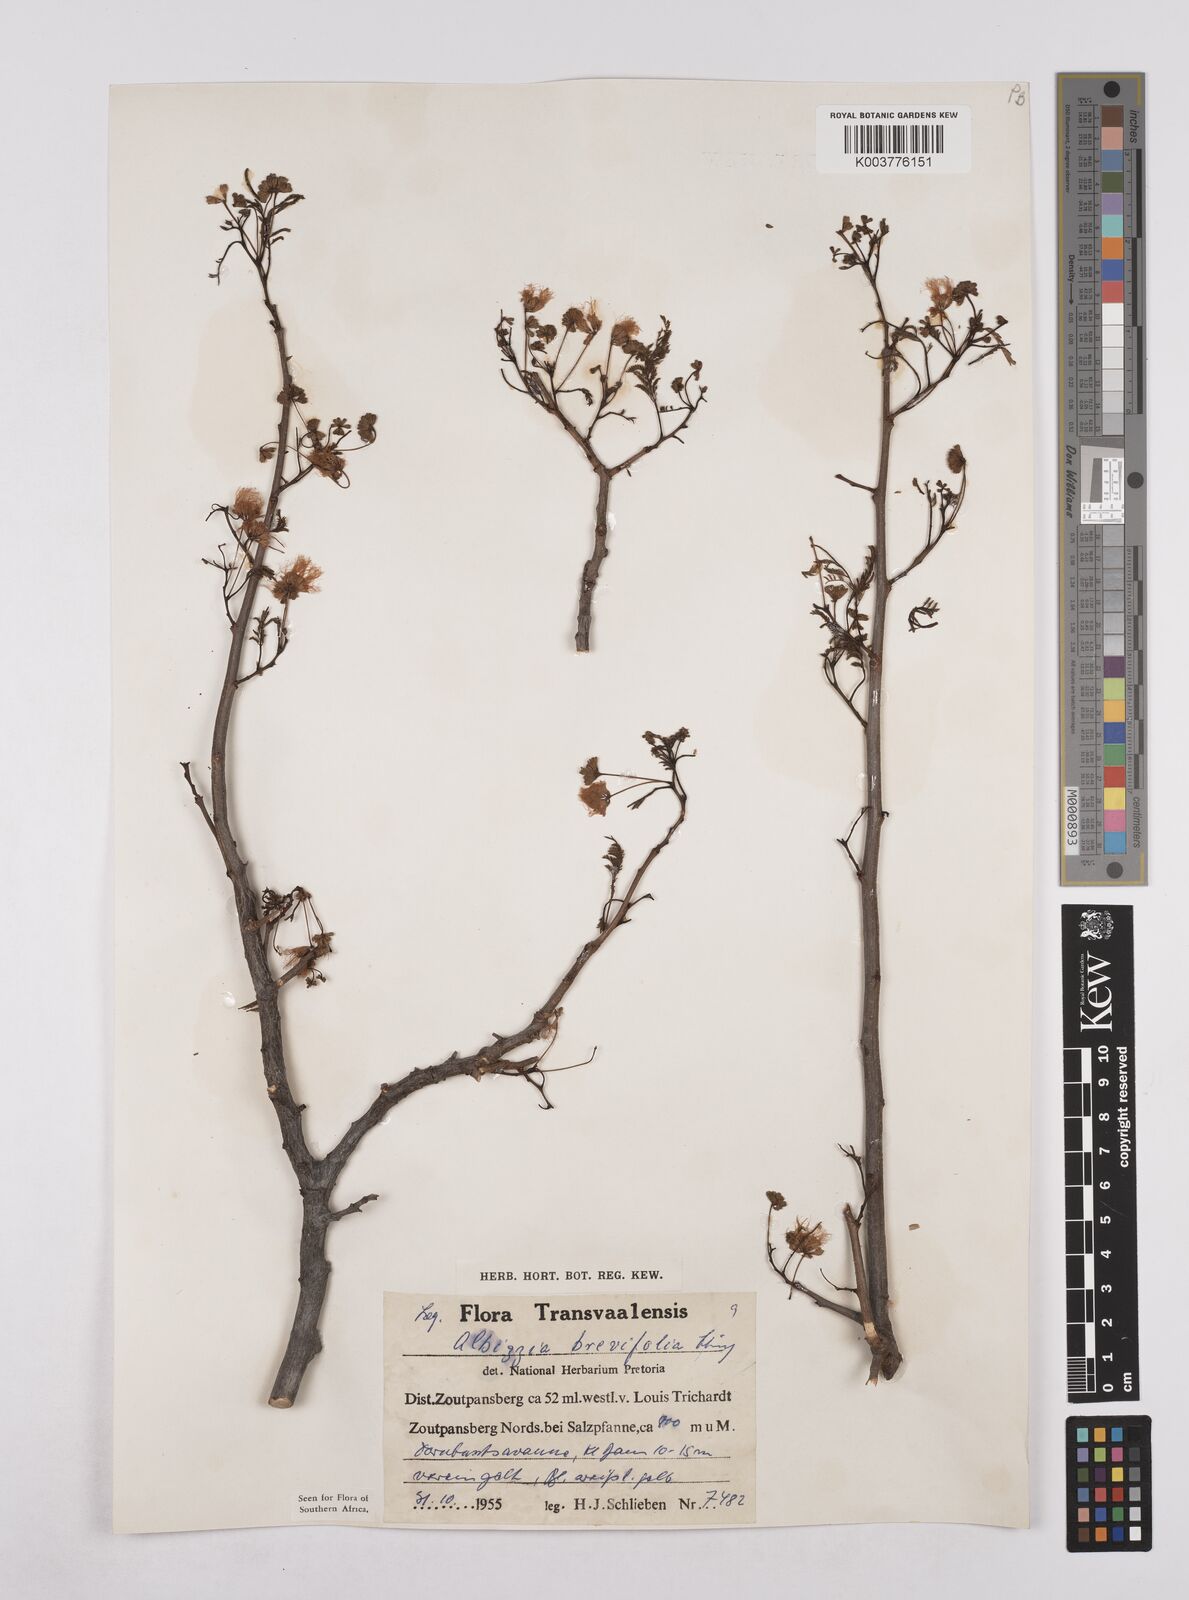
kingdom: Plantae
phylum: Tracheophyta
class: Magnoliopsida
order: Fabales
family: Fabaceae
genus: Albizia
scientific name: Albizia brevifolia
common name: Rock false-thorn
